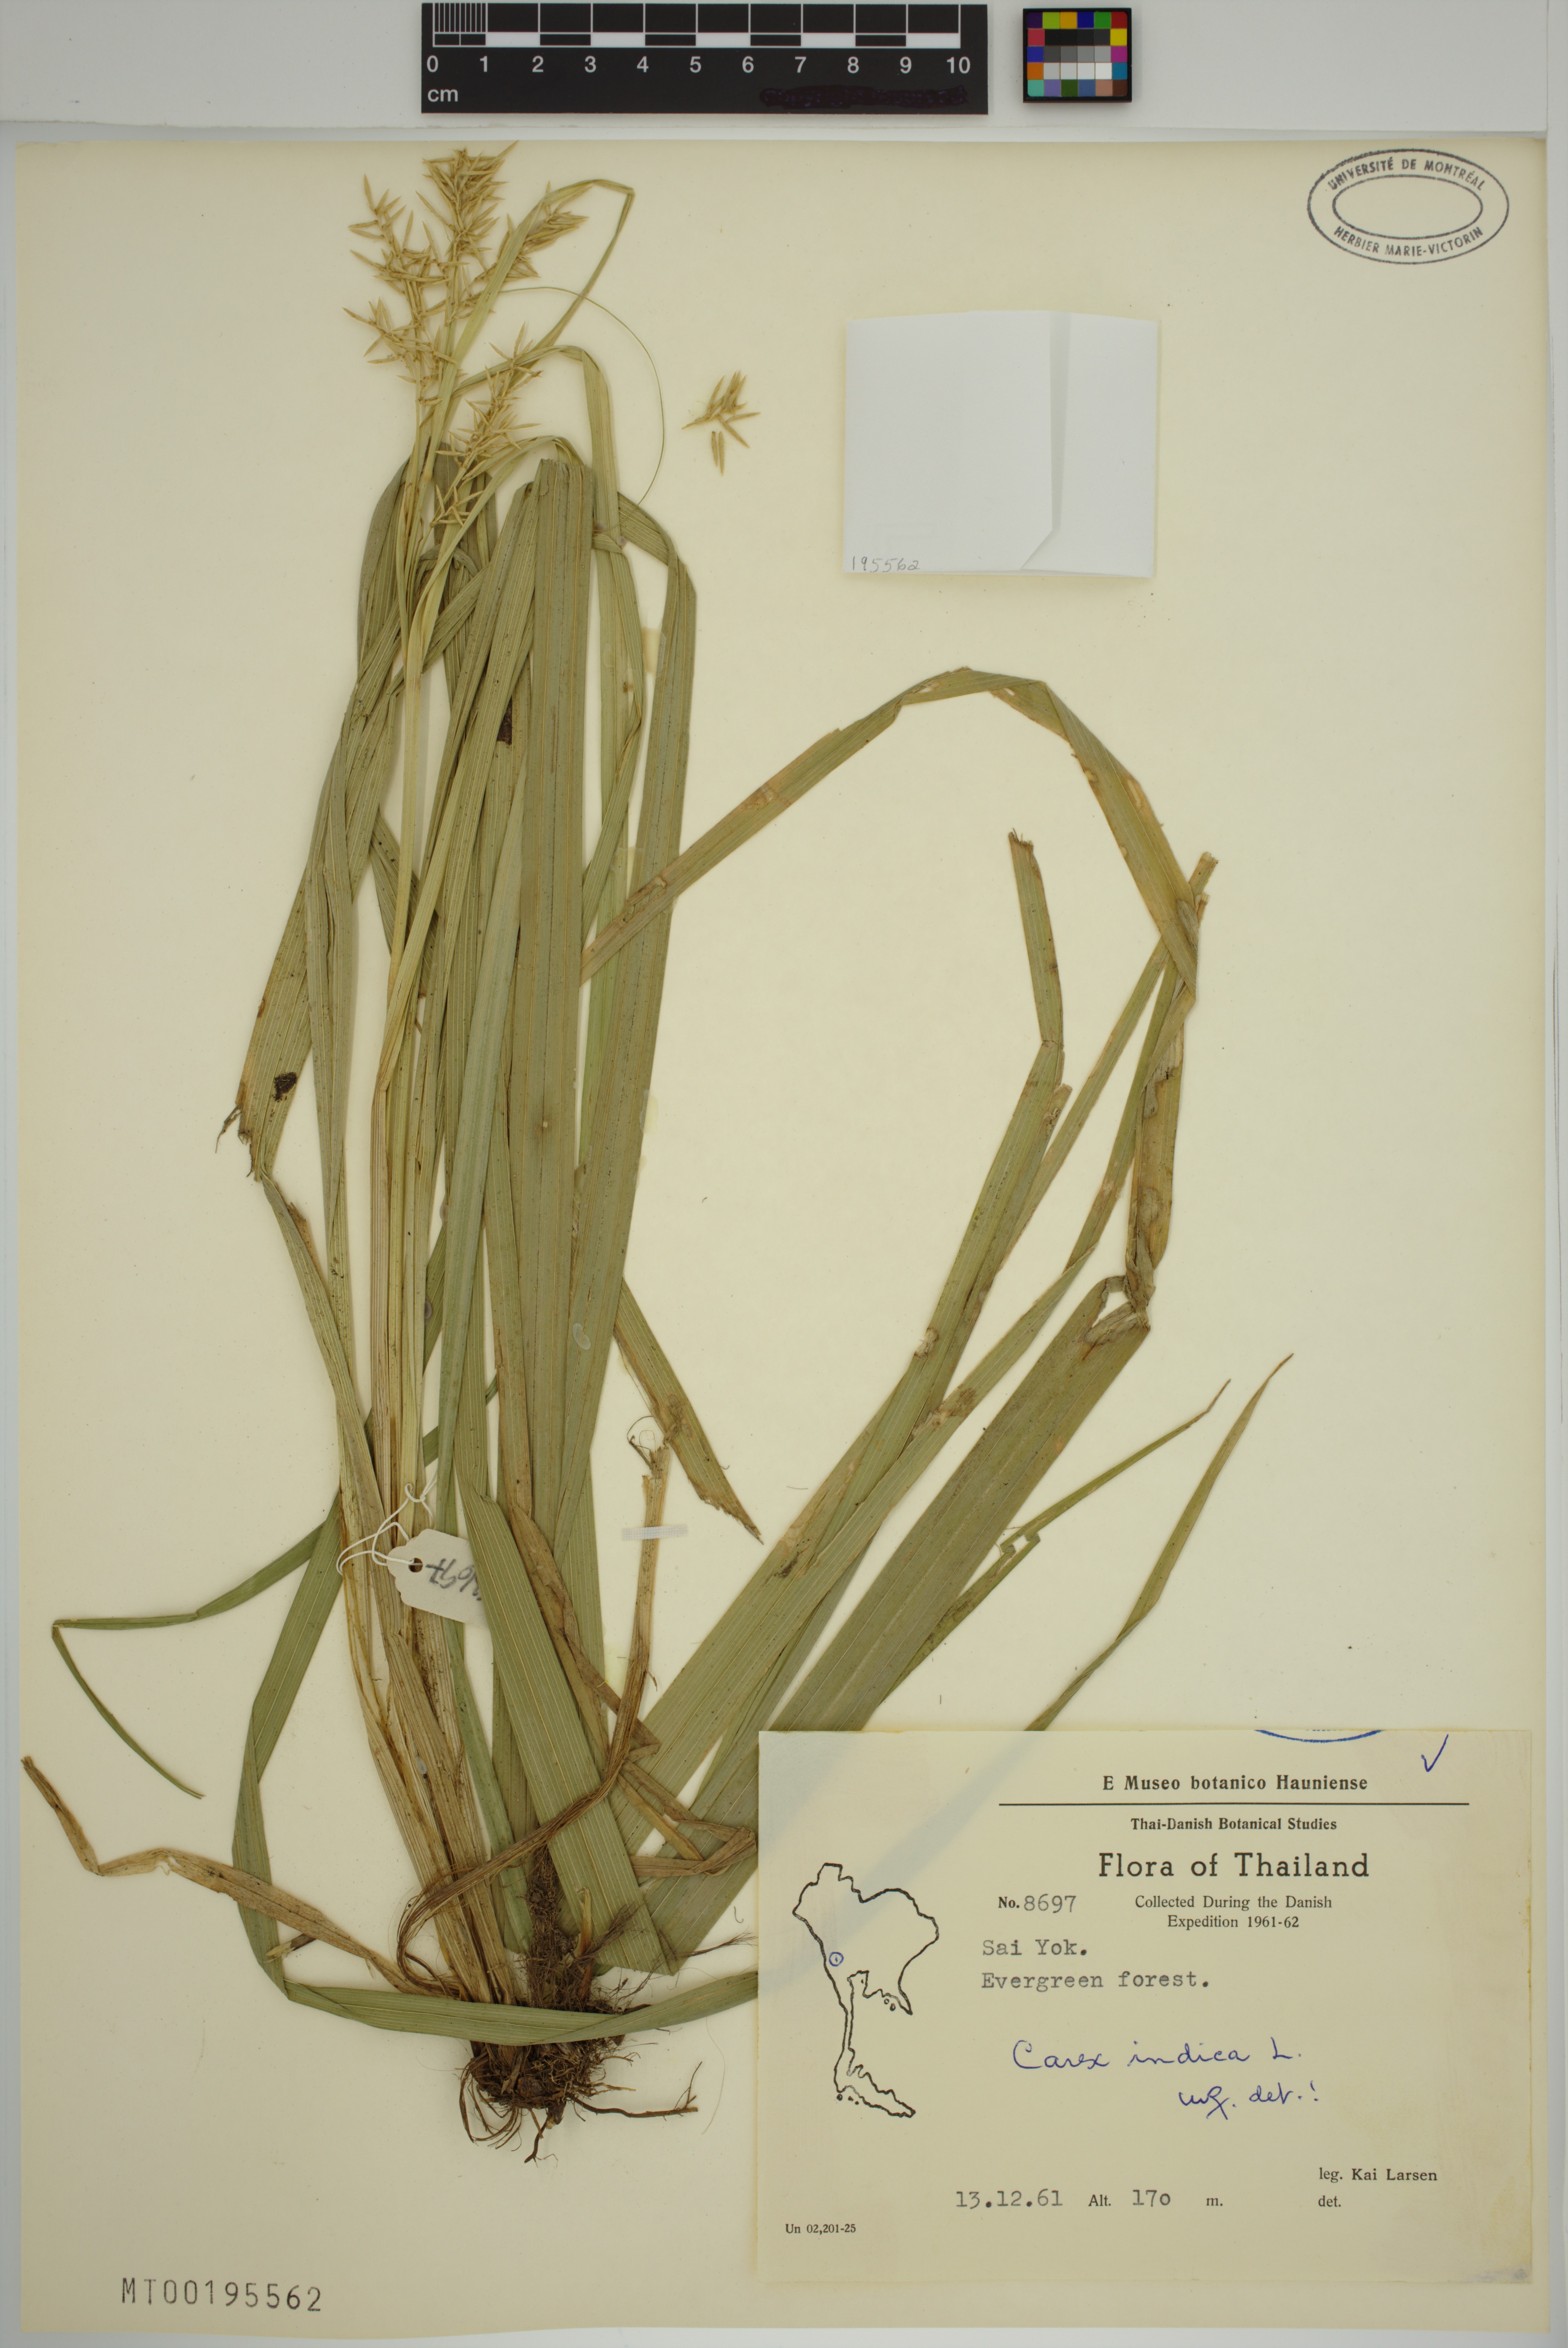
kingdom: Plantae
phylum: Tracheophyta
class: Liliopsida
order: Poales
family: Cyperaceae
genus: Carex
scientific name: Carex indica
